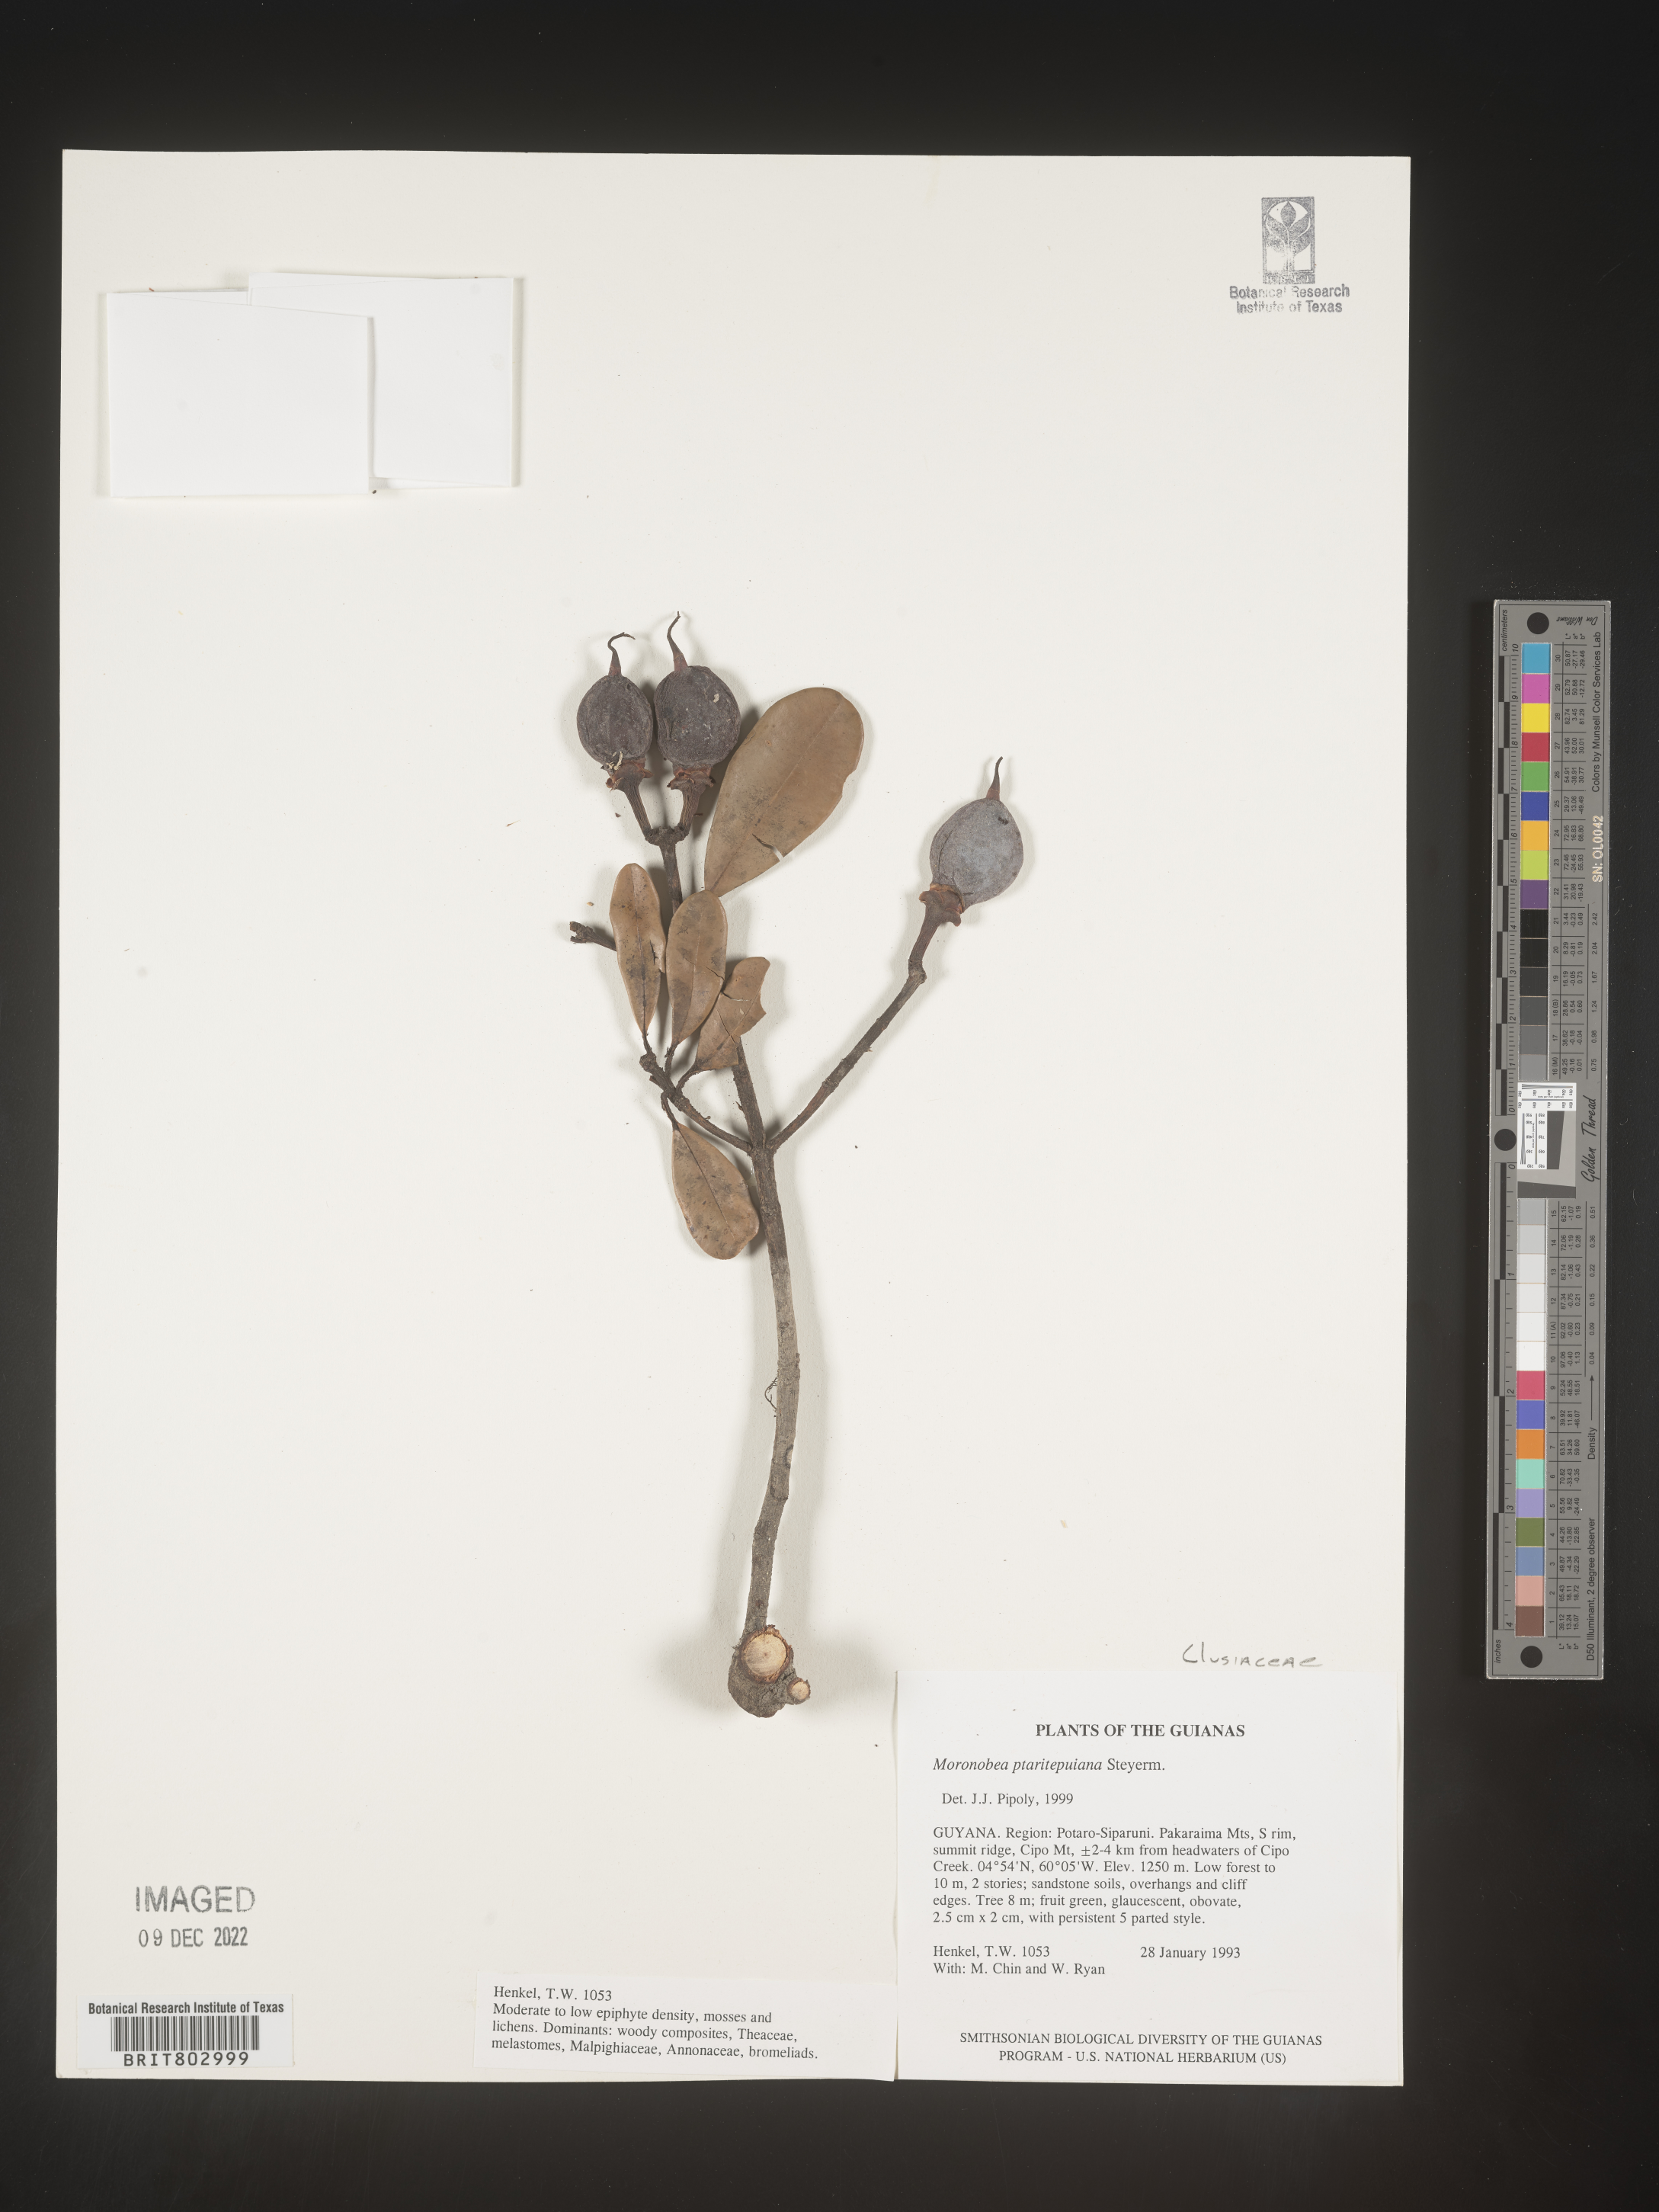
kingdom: Plantae
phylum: Tracheophyta
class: Magnoliopsida
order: Malpighiales
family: Clusiaceae
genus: Moronobea
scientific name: Moronobea
